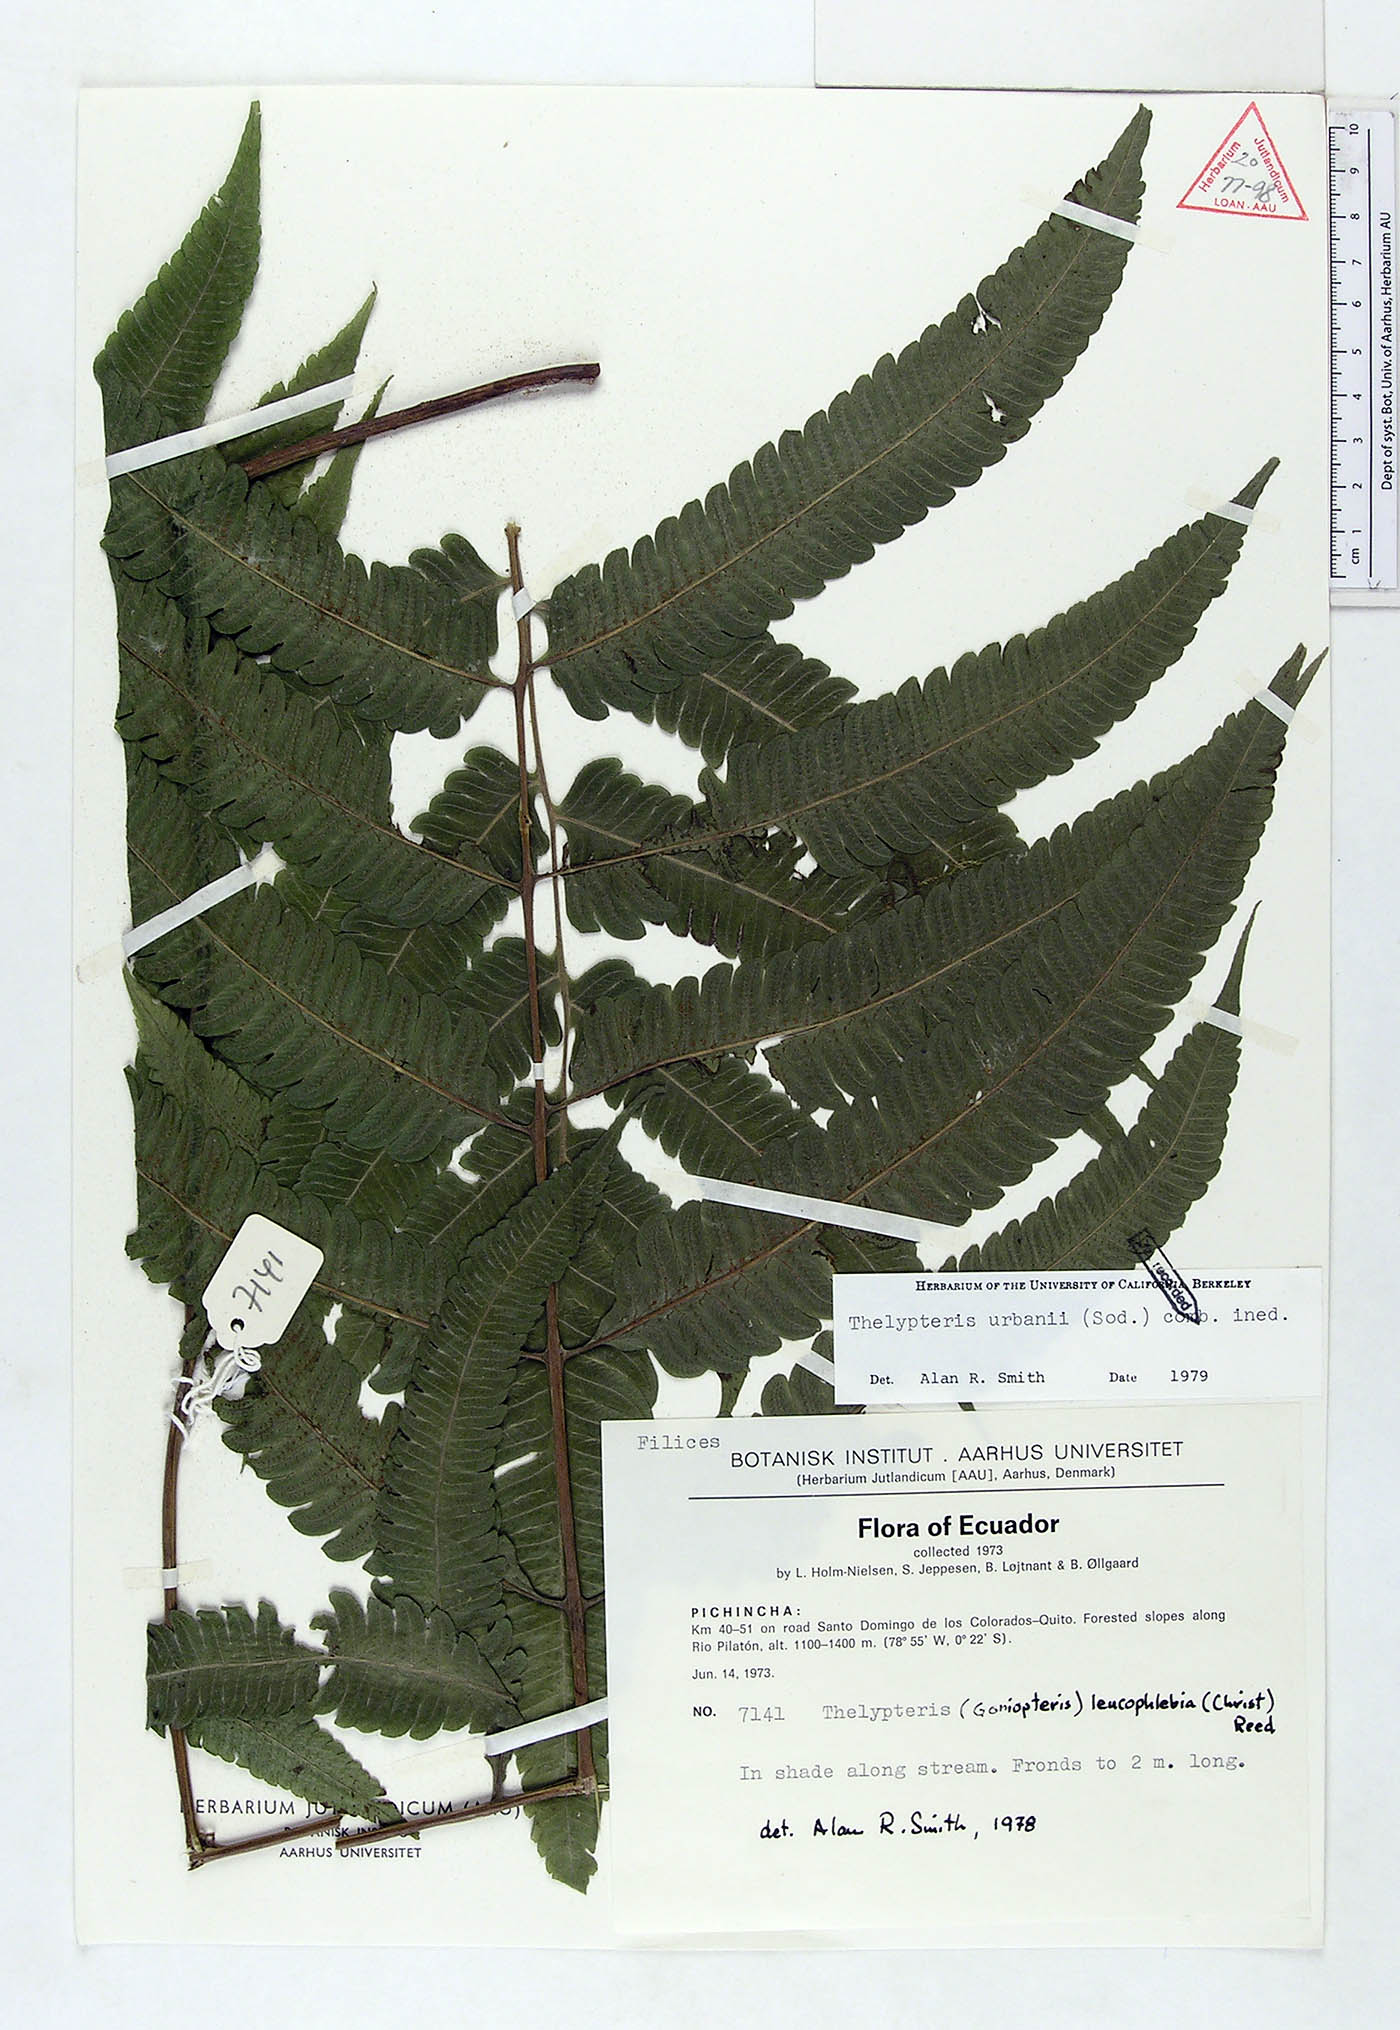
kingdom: Plantae
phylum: Tracheophyta
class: Polypodiopsida
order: Polypodiales
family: Thelypteridaceae
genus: Goniopteris
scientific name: Goniopteris urbani
